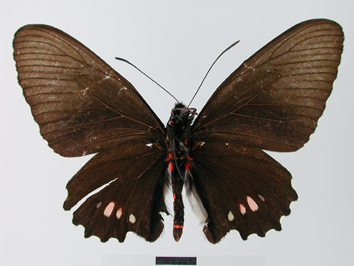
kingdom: Animalia
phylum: Arthropoda
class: Insecta
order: Lepidoptera
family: Papilionidae
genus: Parides
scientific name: Parides erithalion
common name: Variable cattleheart
